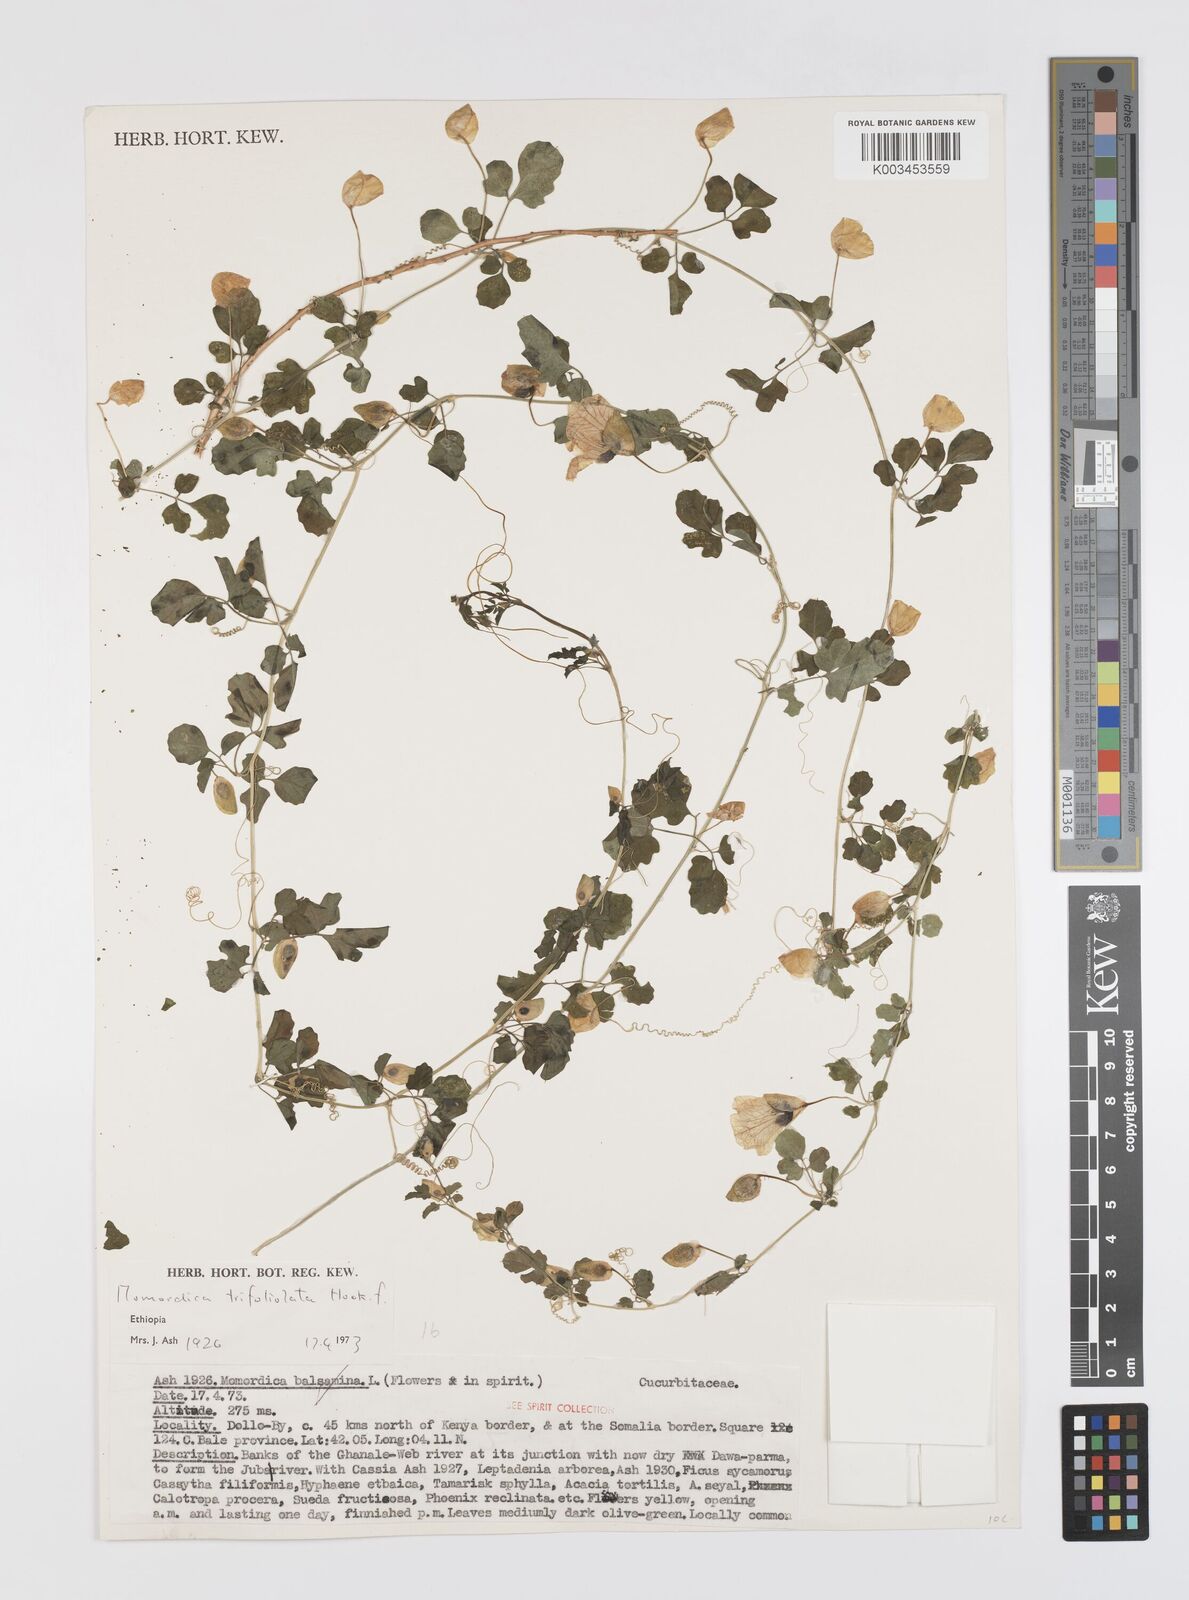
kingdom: Plantae
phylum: Tracheophyta
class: Magnoliopsida
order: Cucurbitales
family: Cucurbitaceae
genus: Momordica
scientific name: Momordica trifoliolata
